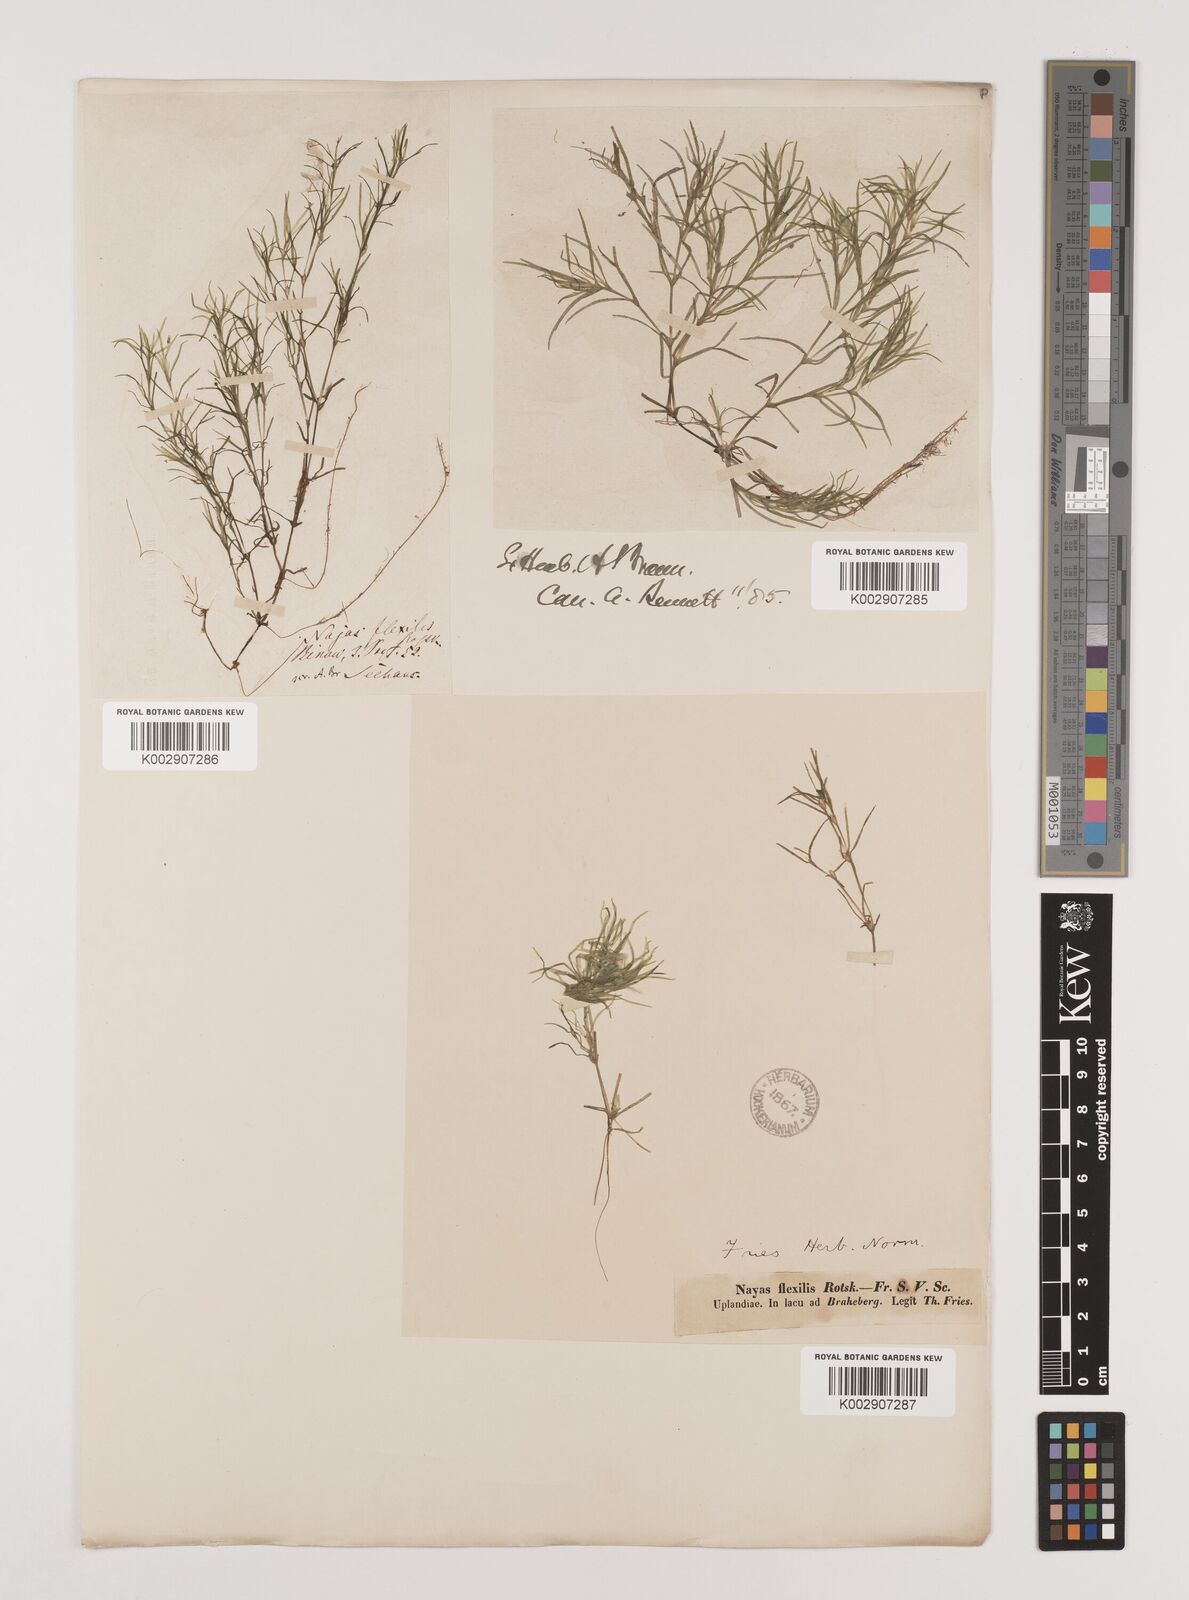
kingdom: Plantae
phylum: Tracheophyta
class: Liliopsida
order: Alismatales
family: Hydrocharitaceae
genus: Najas
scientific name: Najas flexilis
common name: Slender naiad
